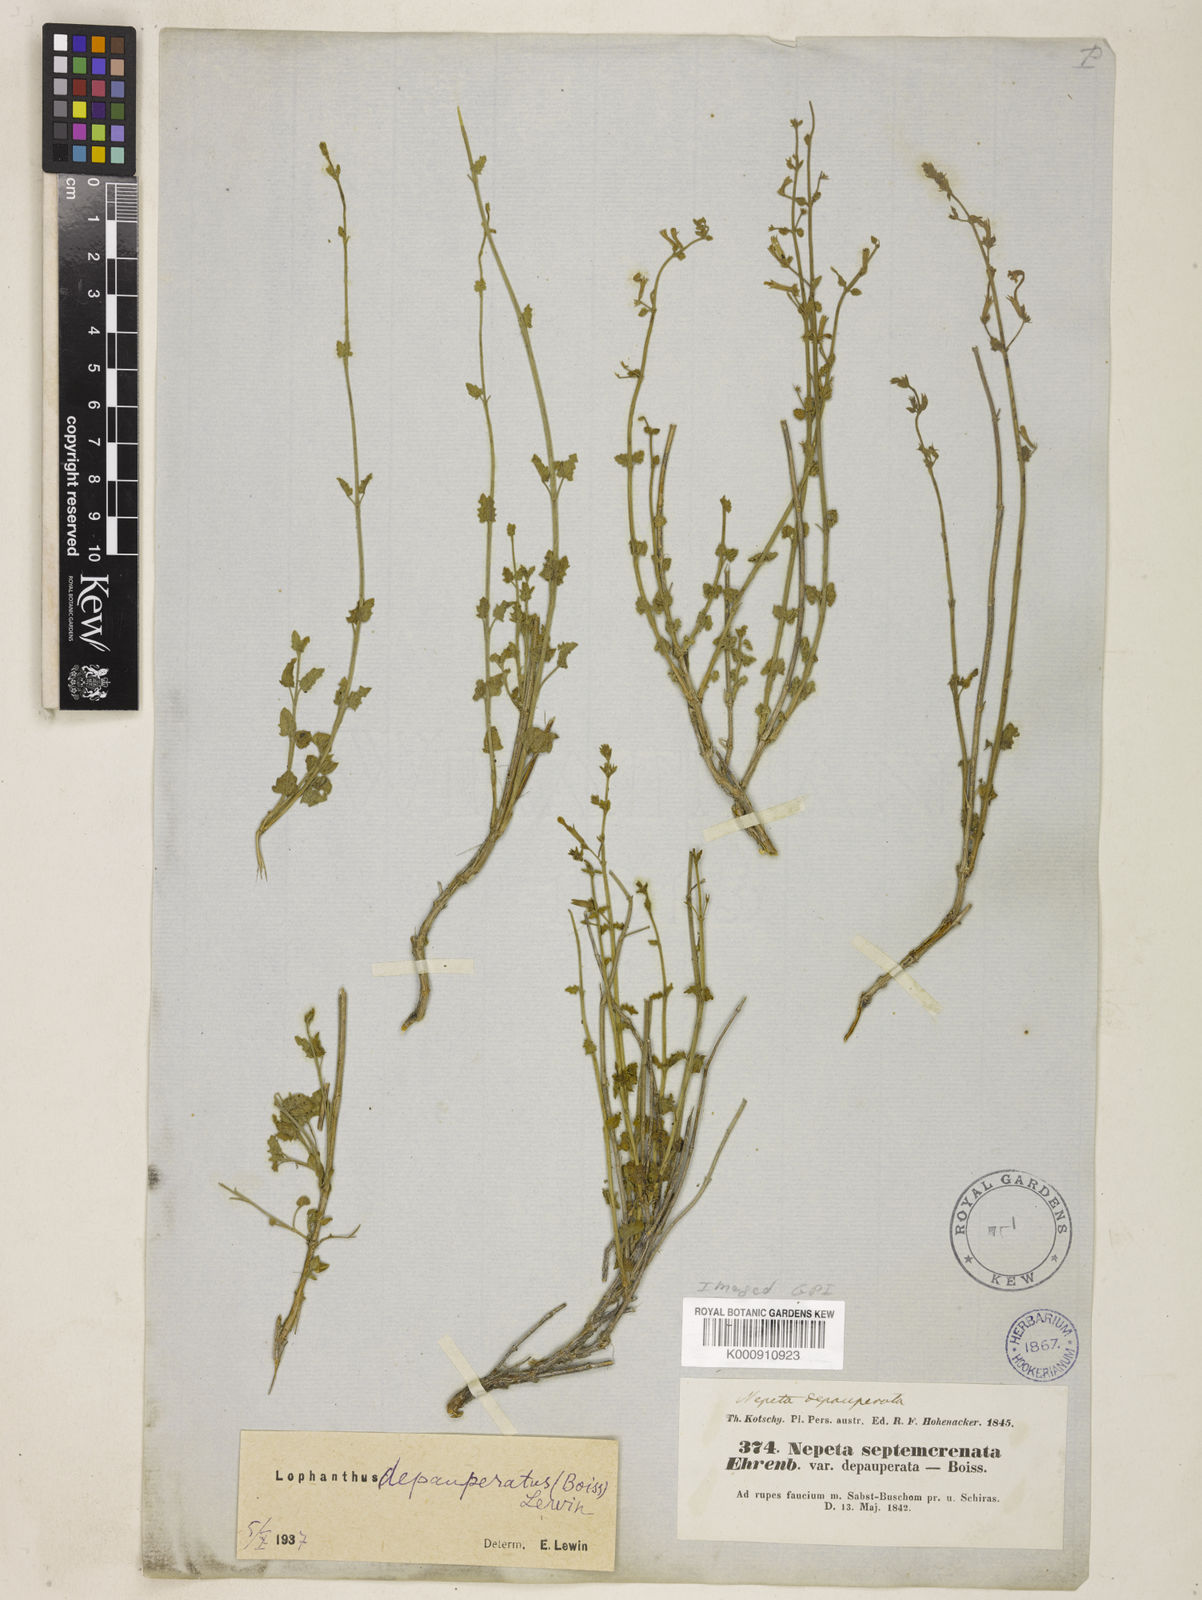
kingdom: Plantae
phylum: Tracheophyta
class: Magnoliopsida
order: Lamiales
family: Lamiaceae
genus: Nepeta
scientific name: Nepeta depauperata
